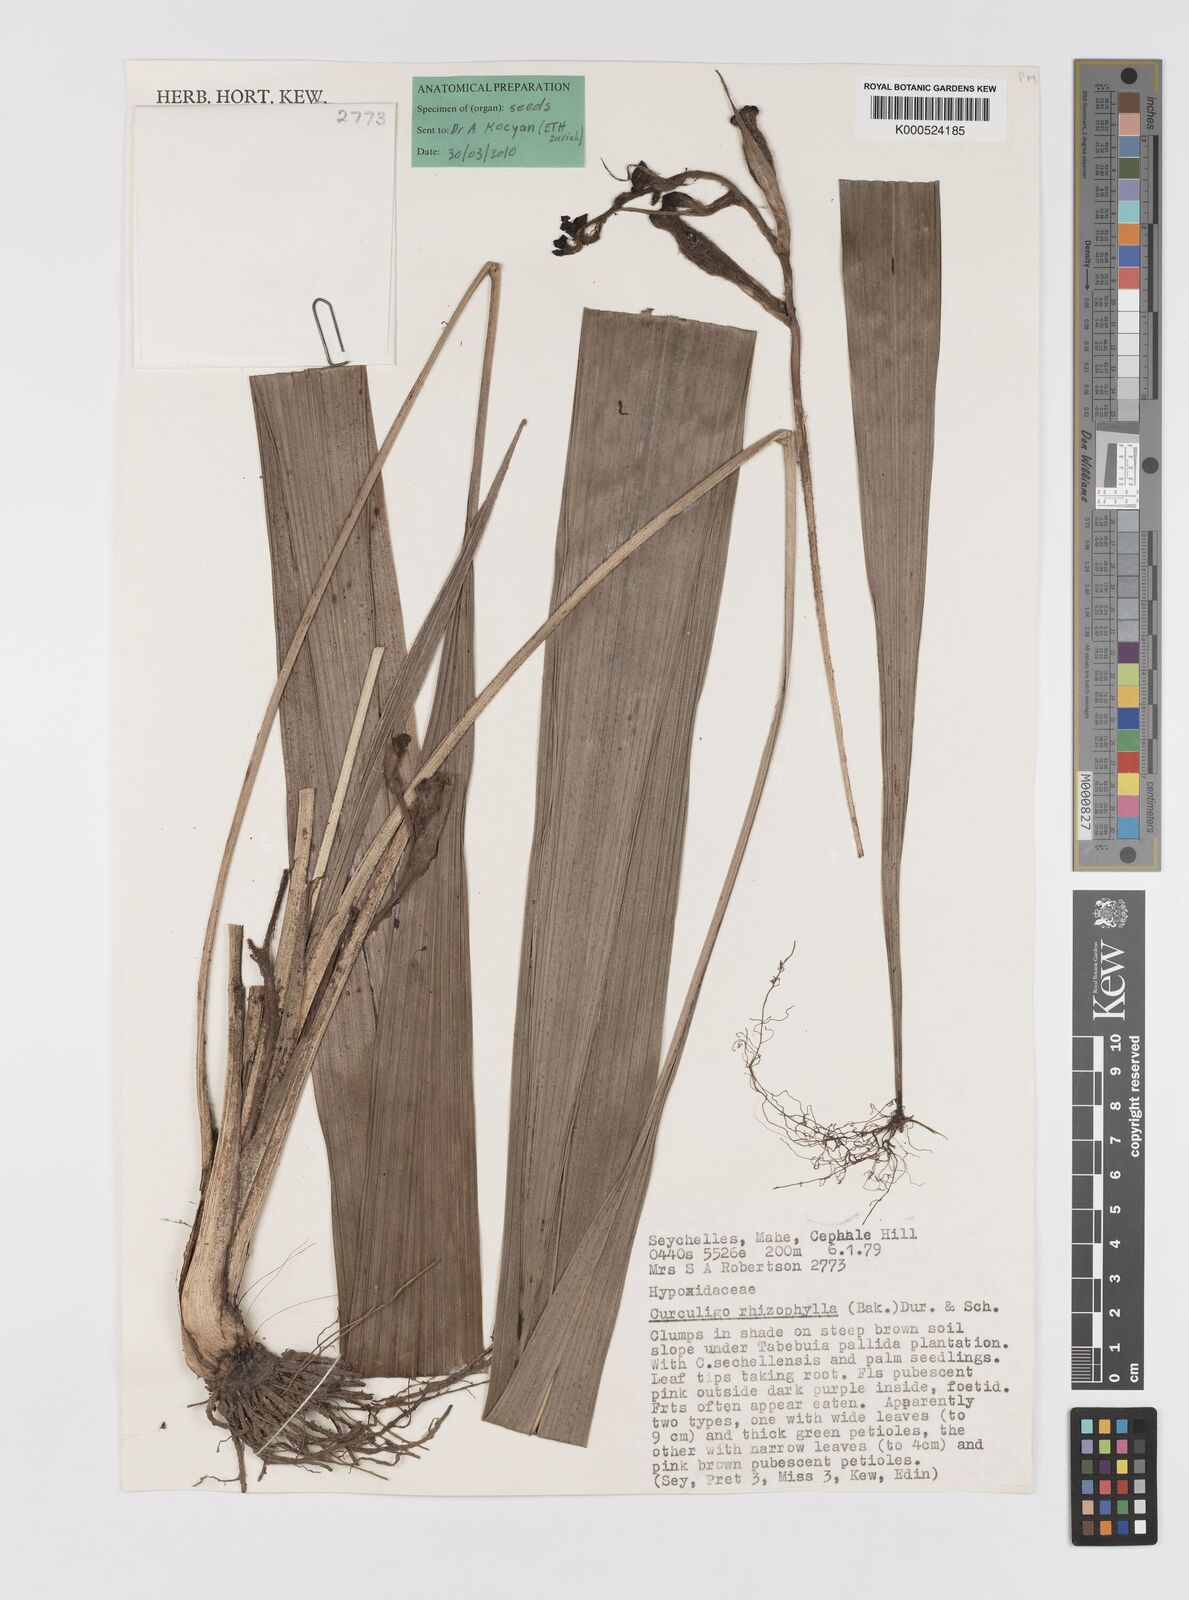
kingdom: Plantae
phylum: Tracheophyta
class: Liliopsida
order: Asparagales
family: Hypoxidaceae
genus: Curculigo
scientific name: Curculigo rhizophylla
